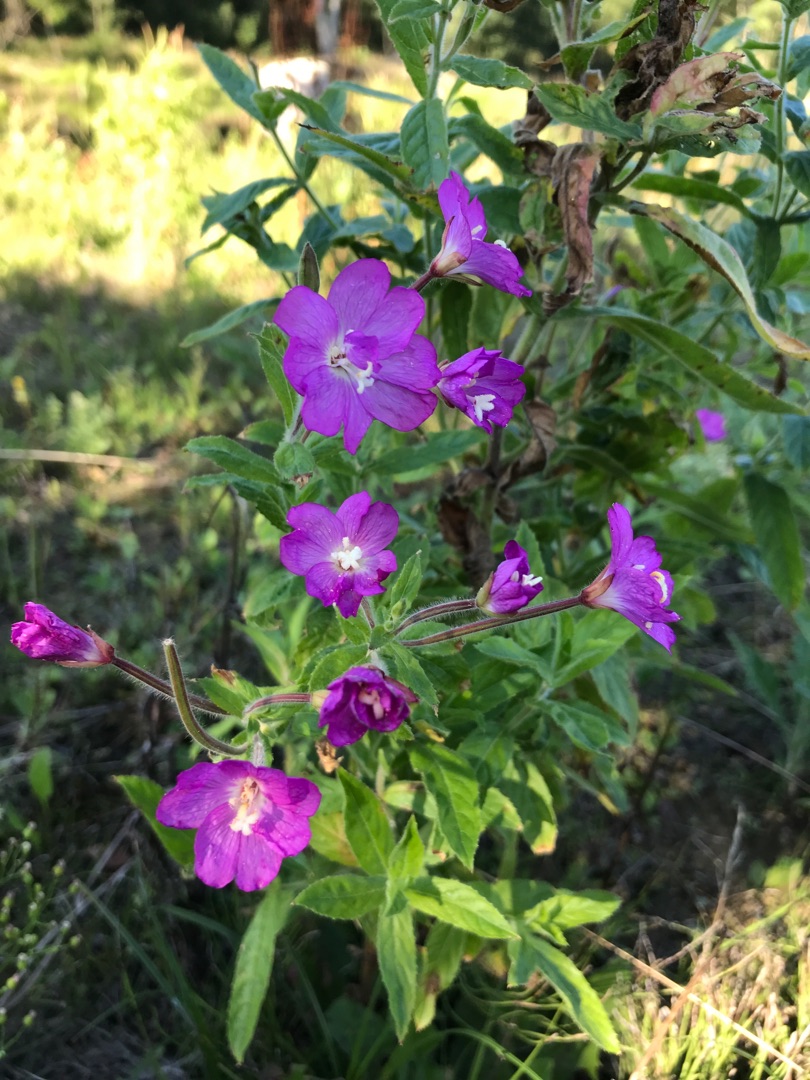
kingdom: Plantae
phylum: Tracheophyta
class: Magnoliopsida
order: Myrtales
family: Onagraceae
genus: Epilobium
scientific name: Epilobium hirsutum
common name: Lådden dueurt
